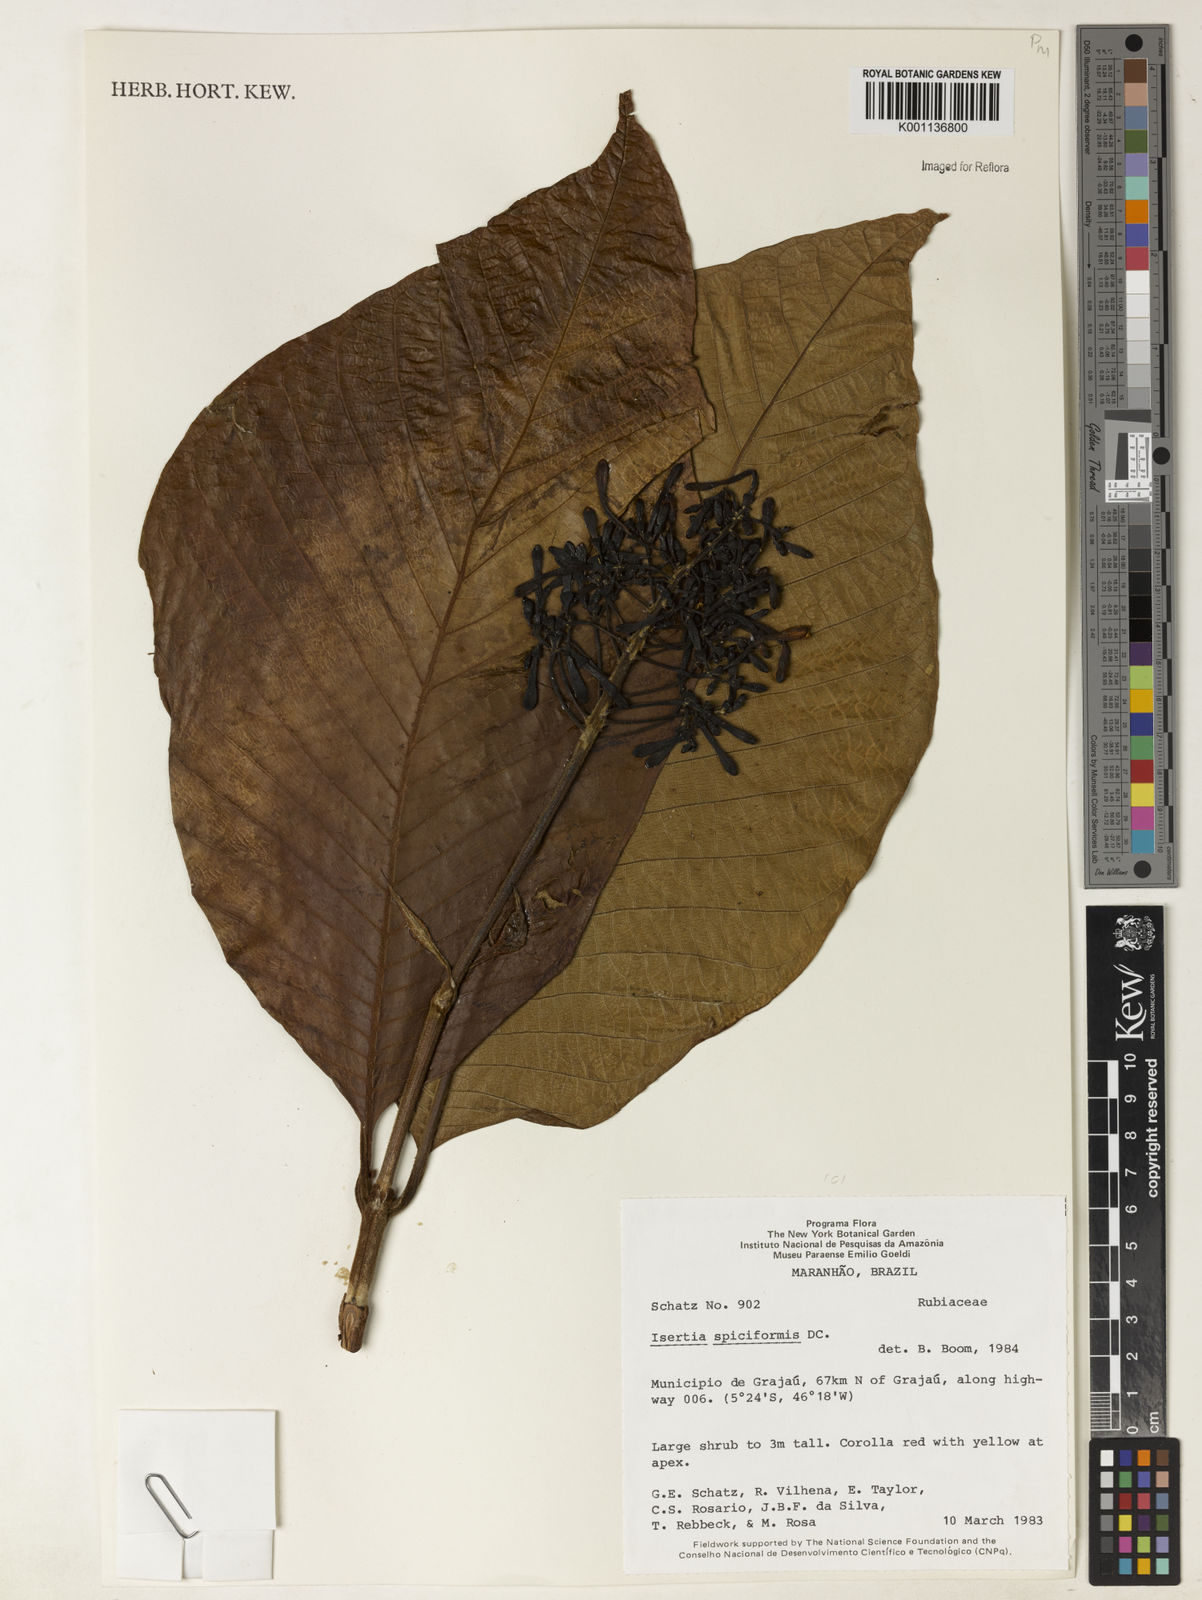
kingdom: Plantae
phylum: Tracheophyta
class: Magnoliopsida
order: Gentianales
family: Rubiaceae
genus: Isertia
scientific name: Isertia spiciformis
